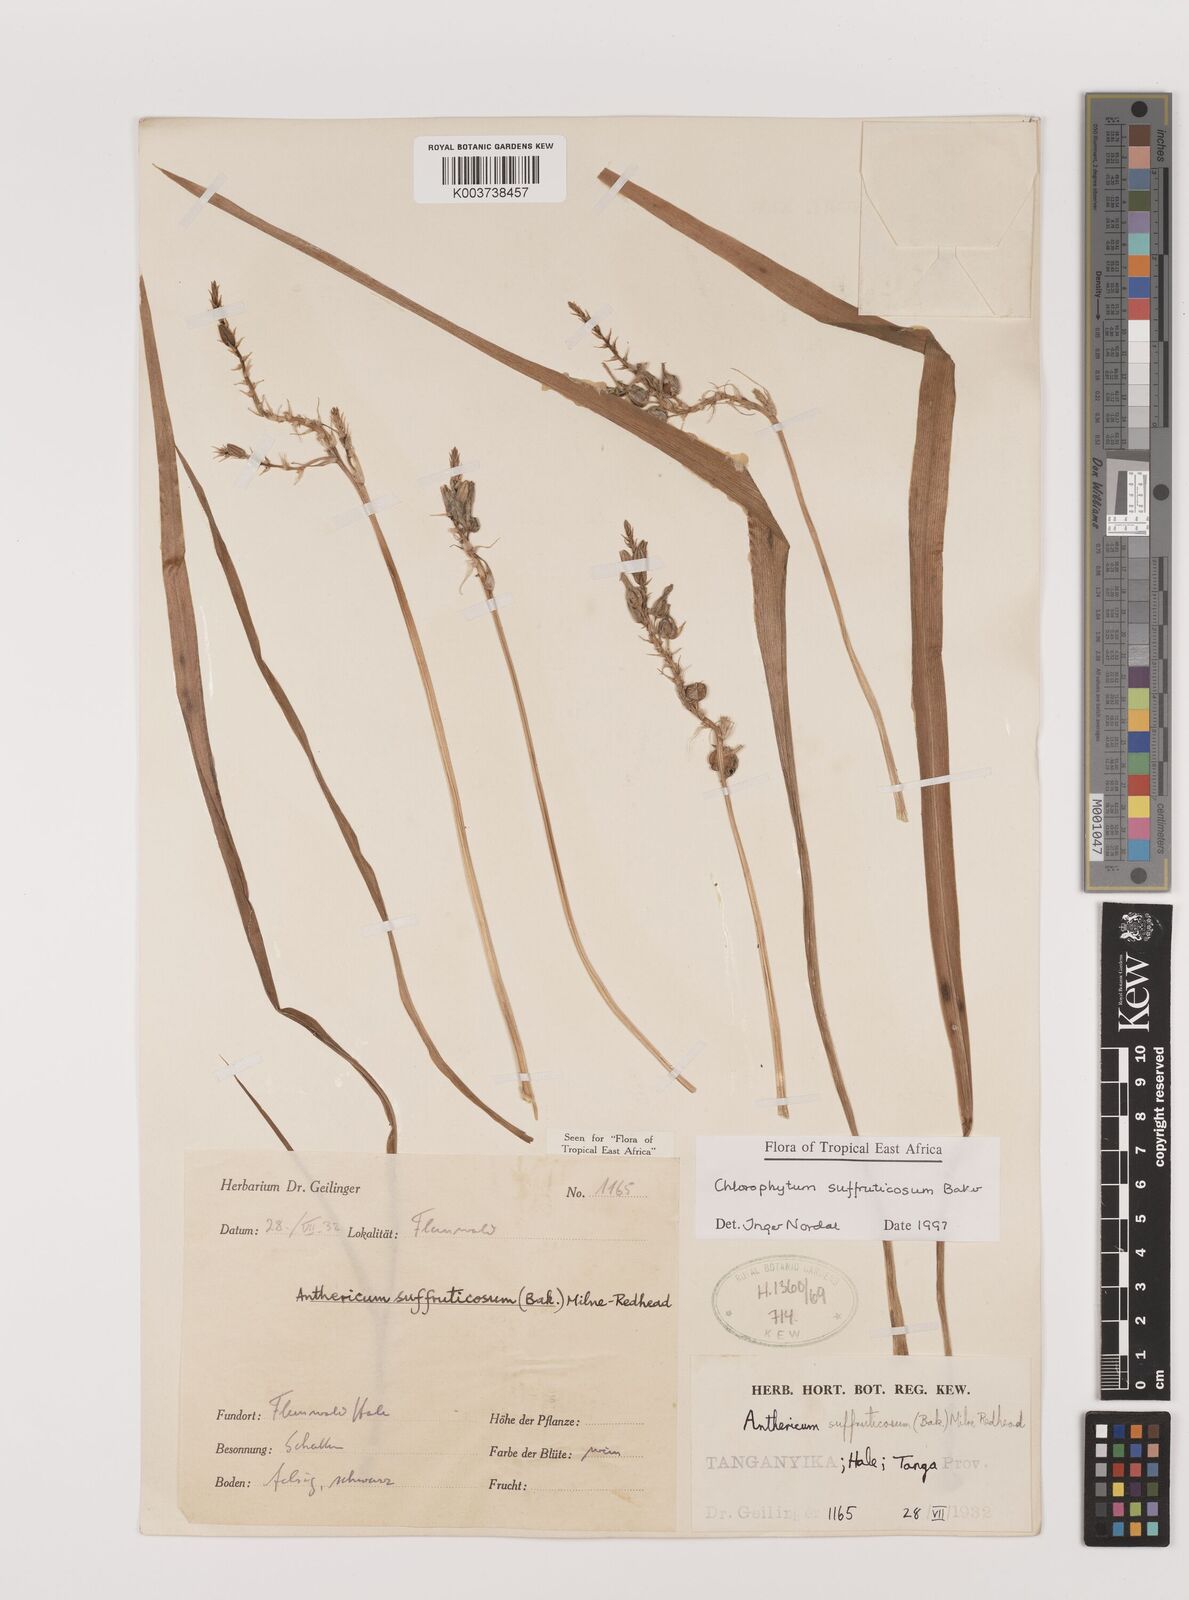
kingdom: Plantae
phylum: Tracheophyta
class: Liliopsida
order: Asparagales
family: Asparagaceae
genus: Chlorophytum
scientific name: Chlorophytum suffruticosum
